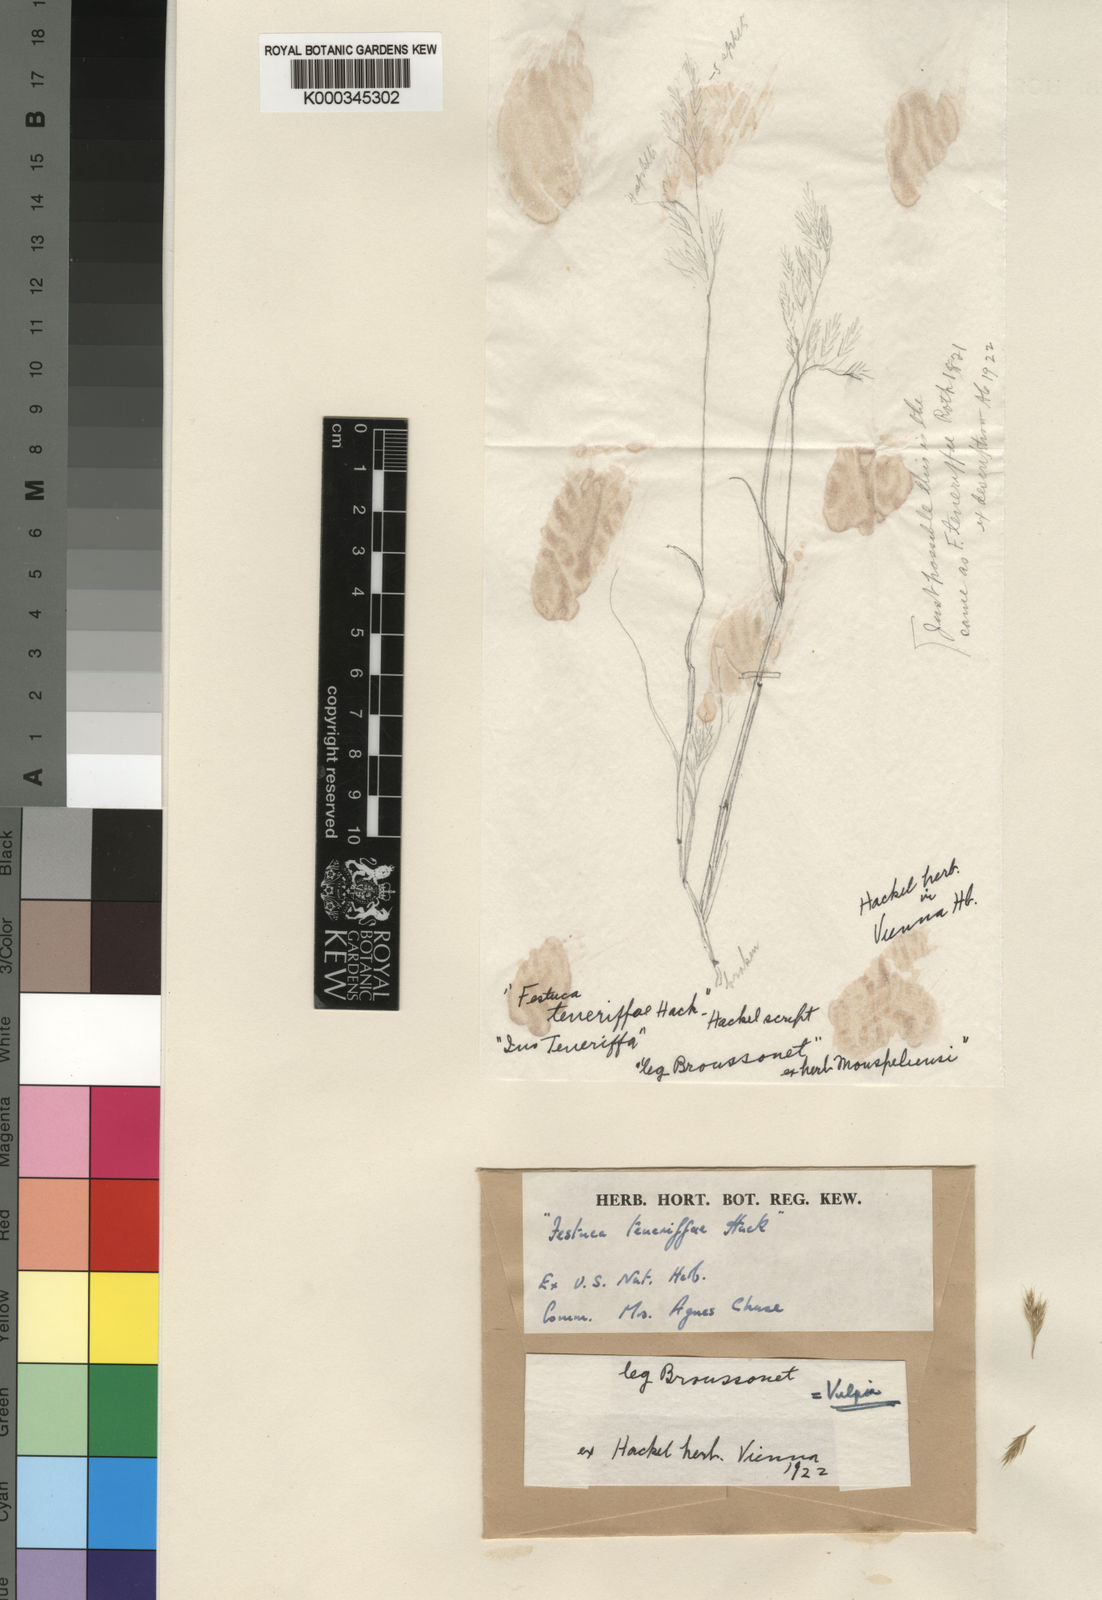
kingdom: Plantae
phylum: Tracheophyta
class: Liliopsida
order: Poales
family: Poaceae
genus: Festuca
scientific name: Festuca agustini
